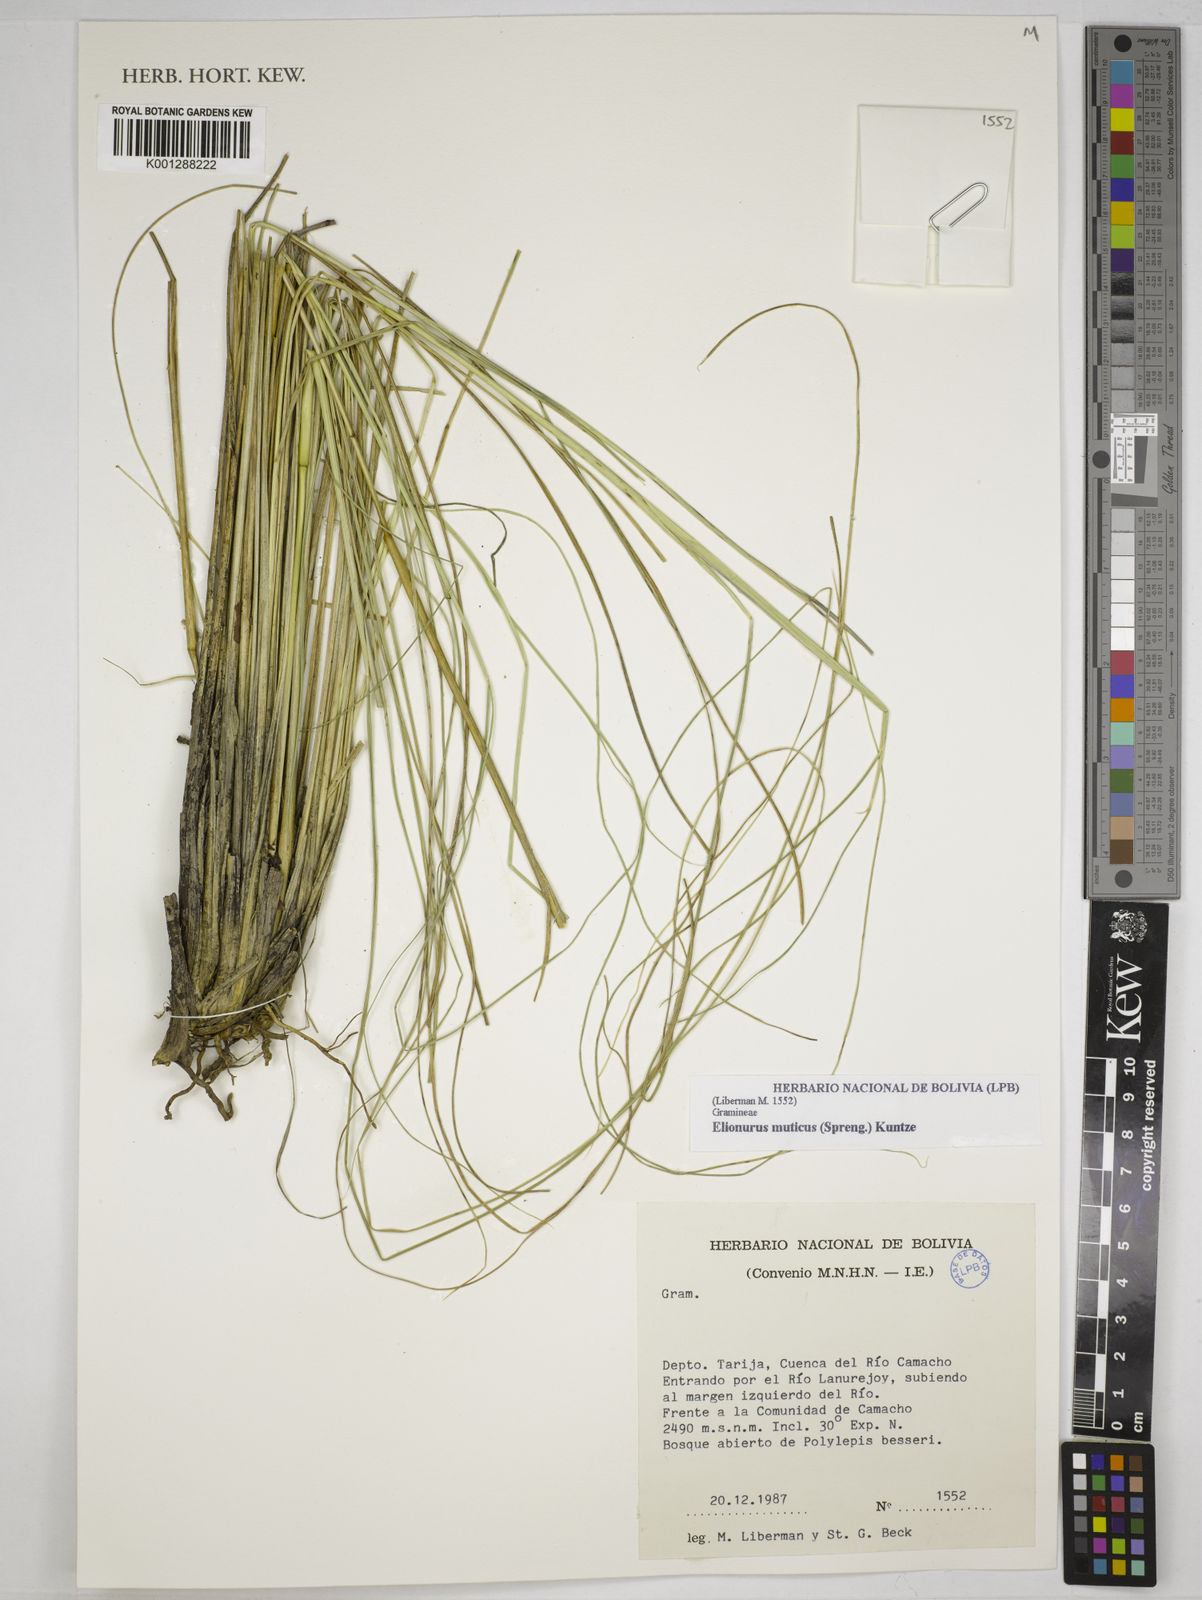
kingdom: Plantae
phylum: Tracheophyta
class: Liliopsida
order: Poales
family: Poaceae
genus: Elionurus
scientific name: Elionurus muticus
